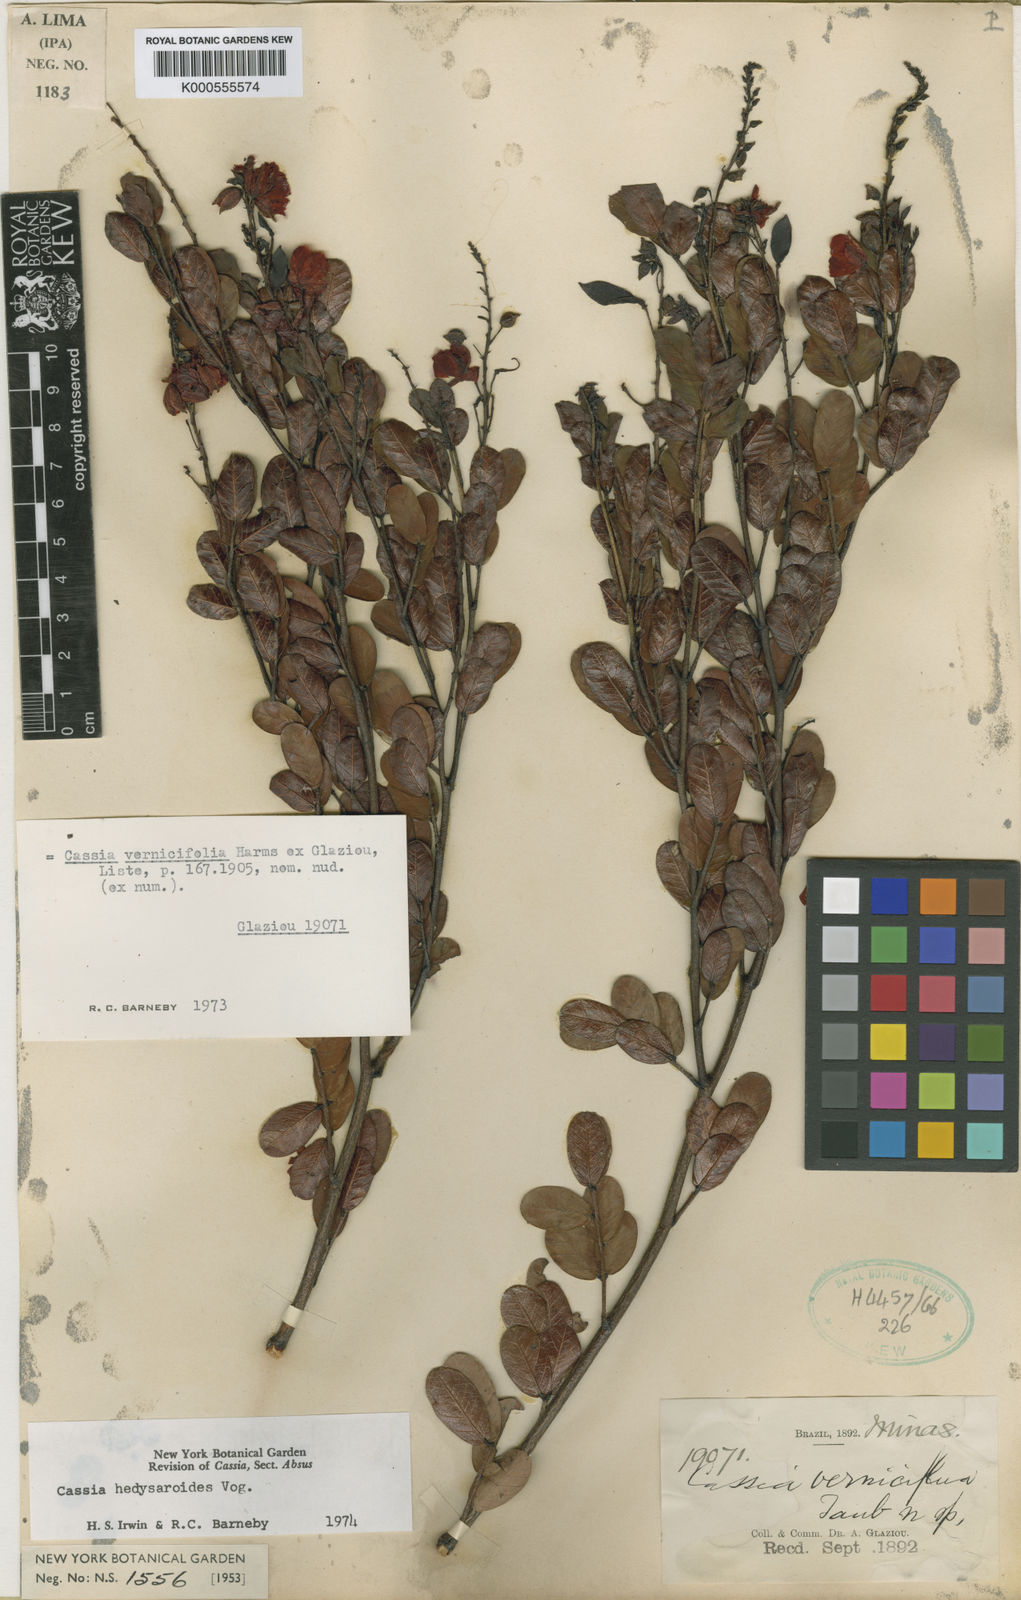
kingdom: Plantae
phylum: Tracheophyta
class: Magnoliopsida
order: Fabales
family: Fabaceae
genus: Chamaecrista
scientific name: Chamaecrista hedysaroides
